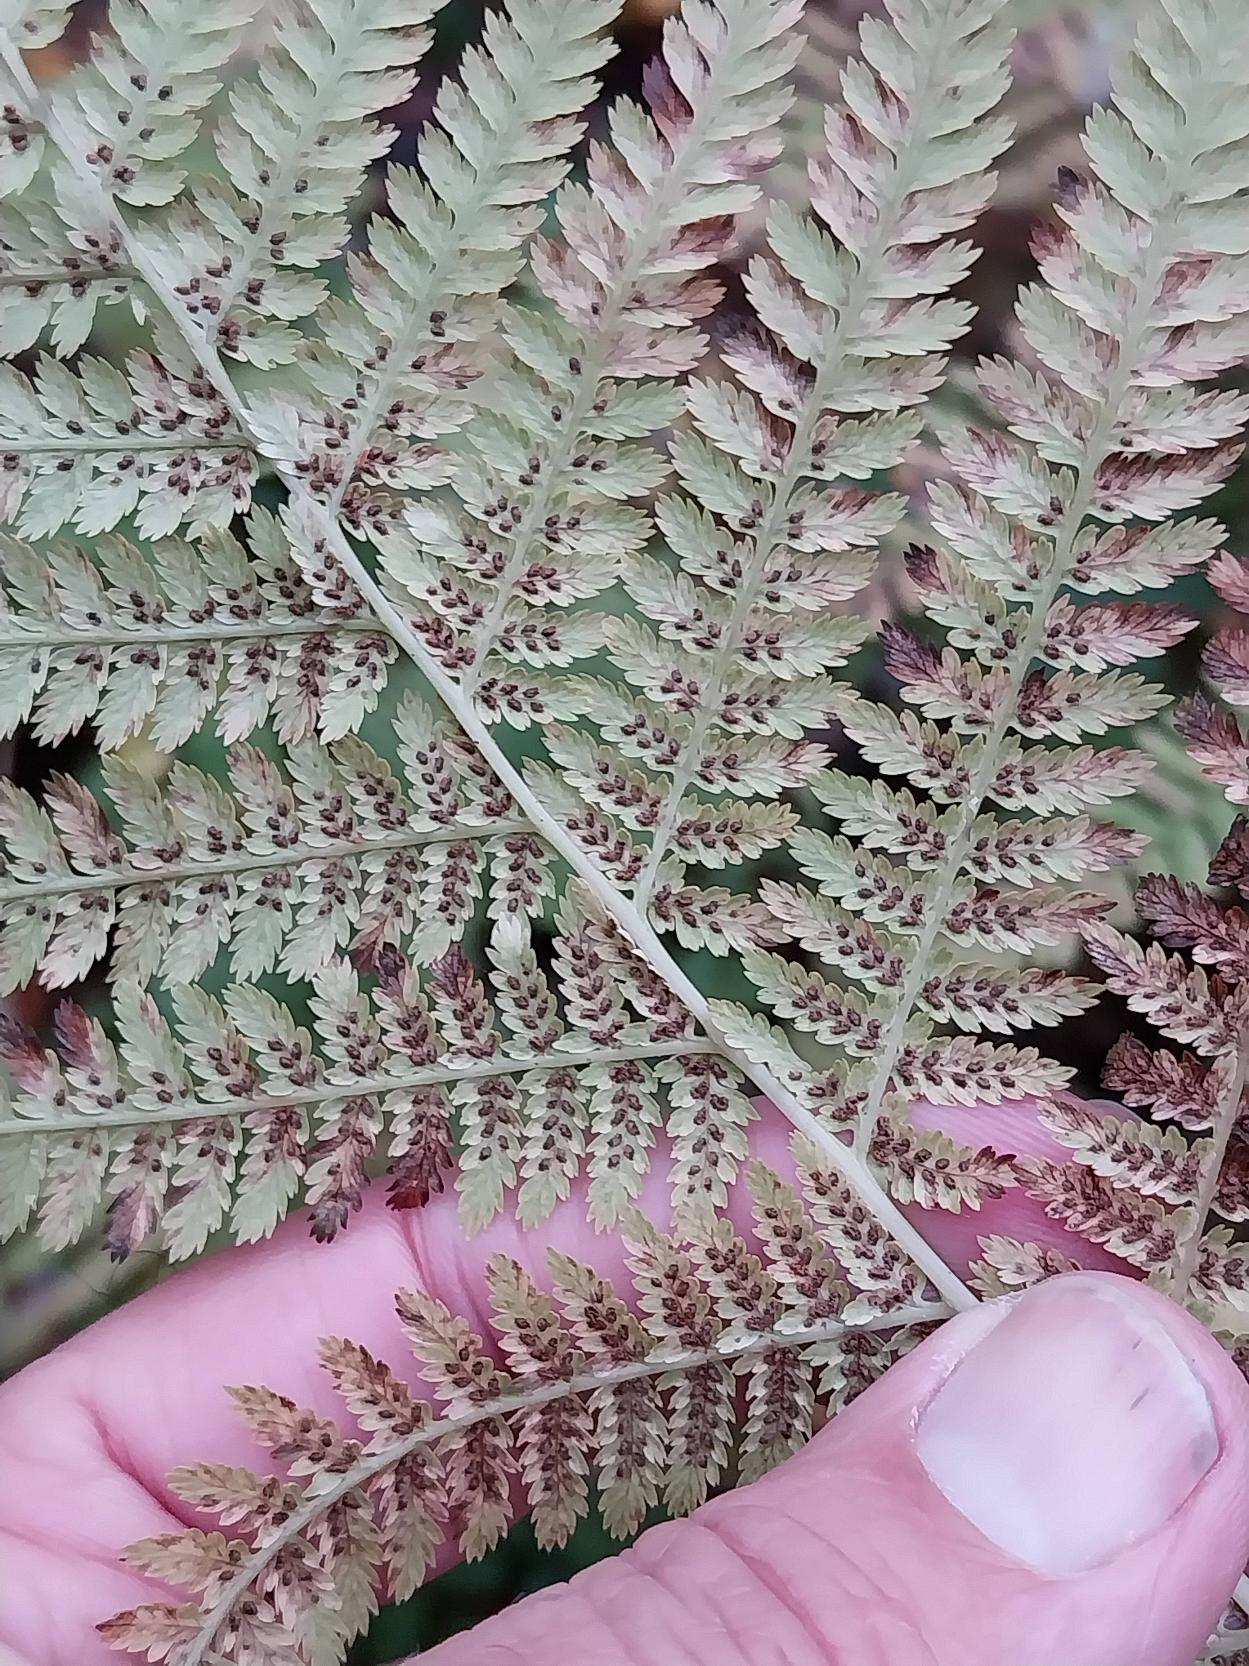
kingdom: Plantae
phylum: Tracheophyta
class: Polypodiopsida
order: Polypodiales
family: Athyriaceae
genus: Athyrium
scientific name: Athyrium filix-femina
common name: Fjerbregne
